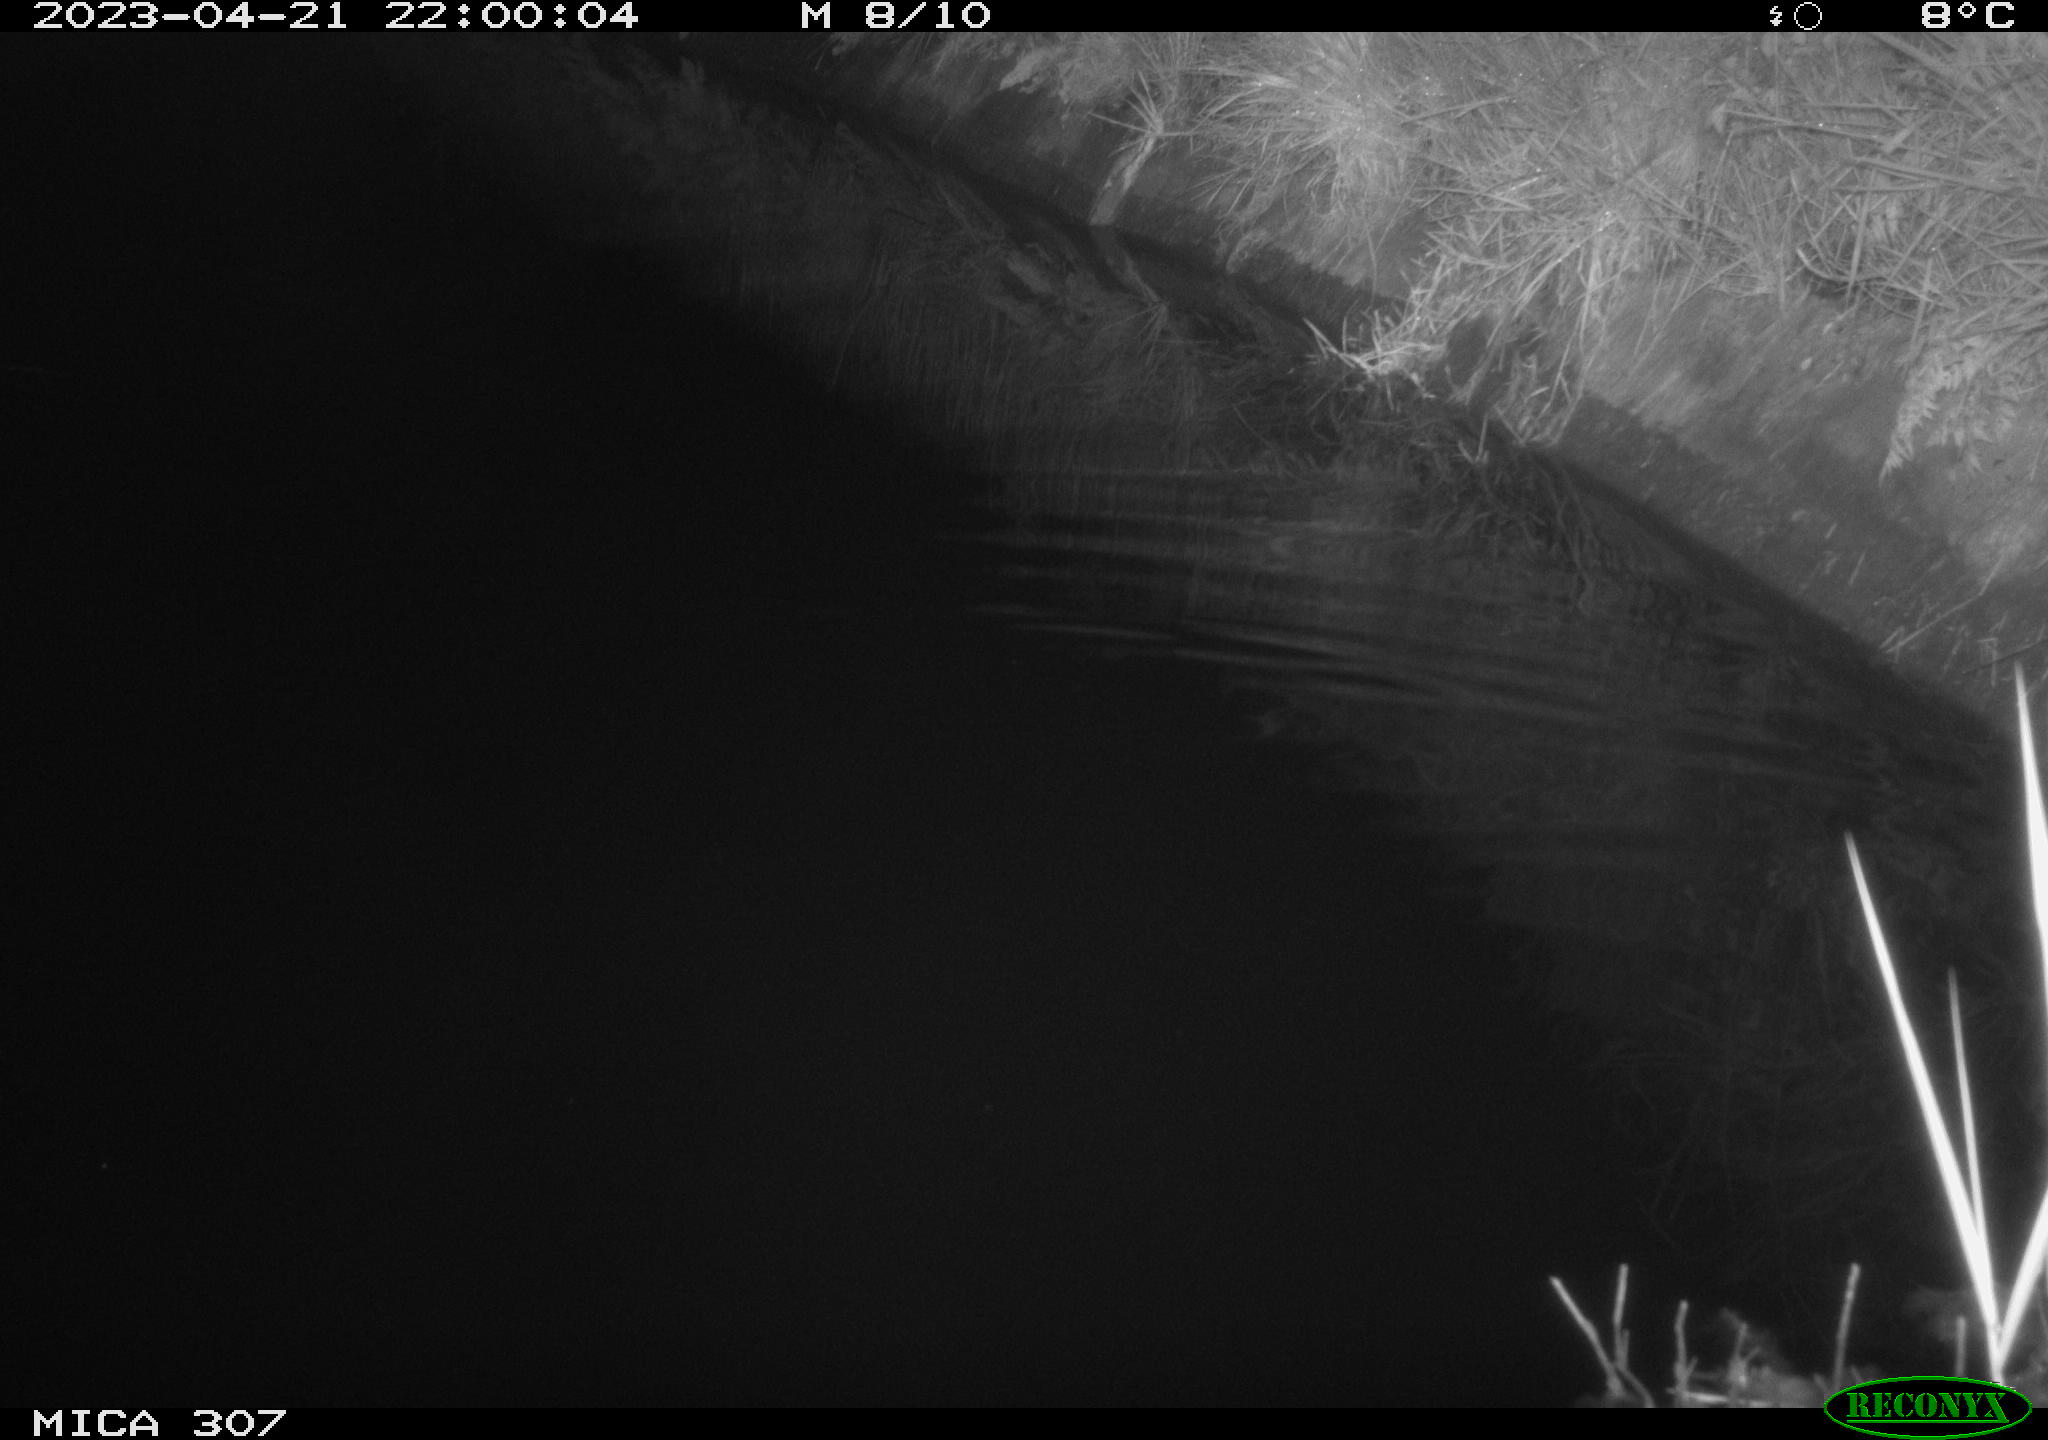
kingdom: Animalia
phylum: Chordata
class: Aves
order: Anseriformes
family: Anatidae
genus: Anas
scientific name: Anas
